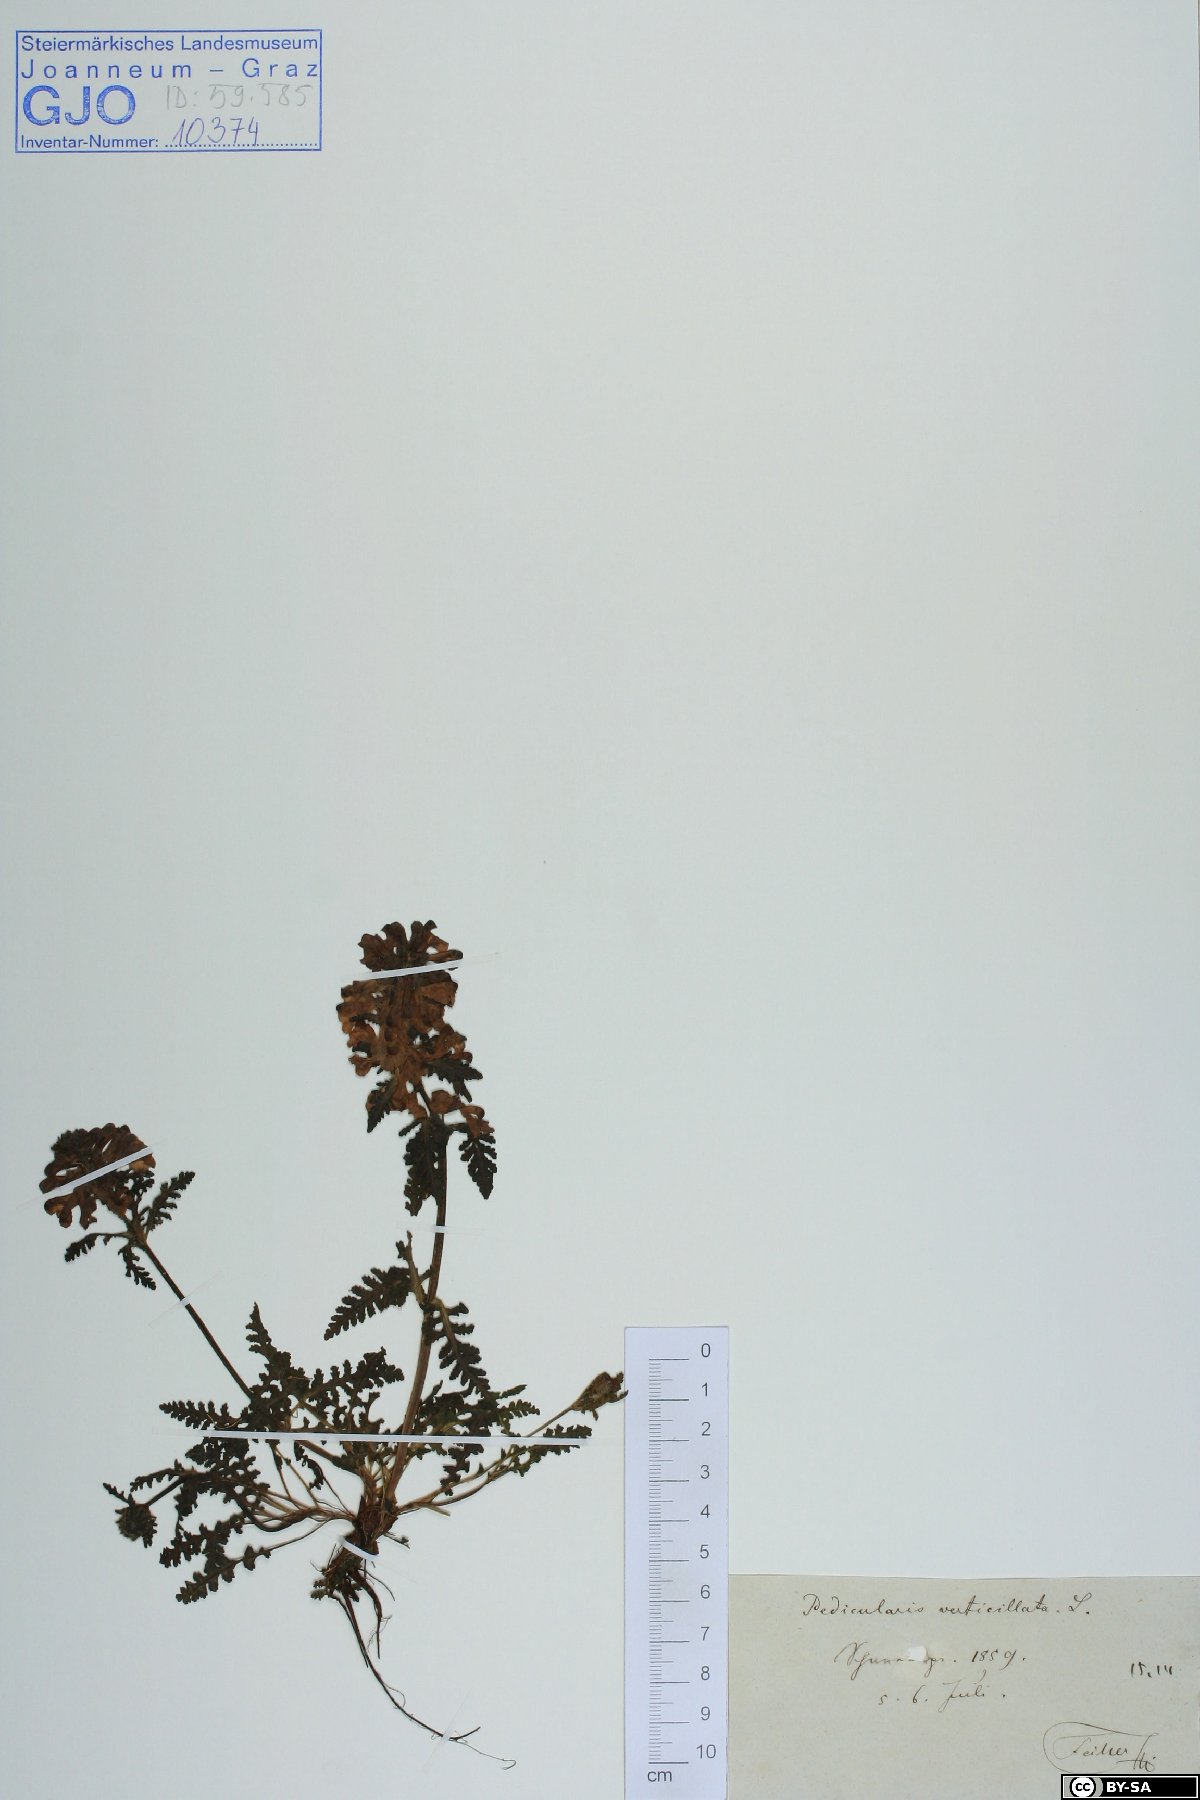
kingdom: Fungi
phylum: Basidiomycota
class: Agaricomycetes
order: Boletales
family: Boletaceae
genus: Leccinum
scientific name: Leccinum versipelle
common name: Orange birch bolete
